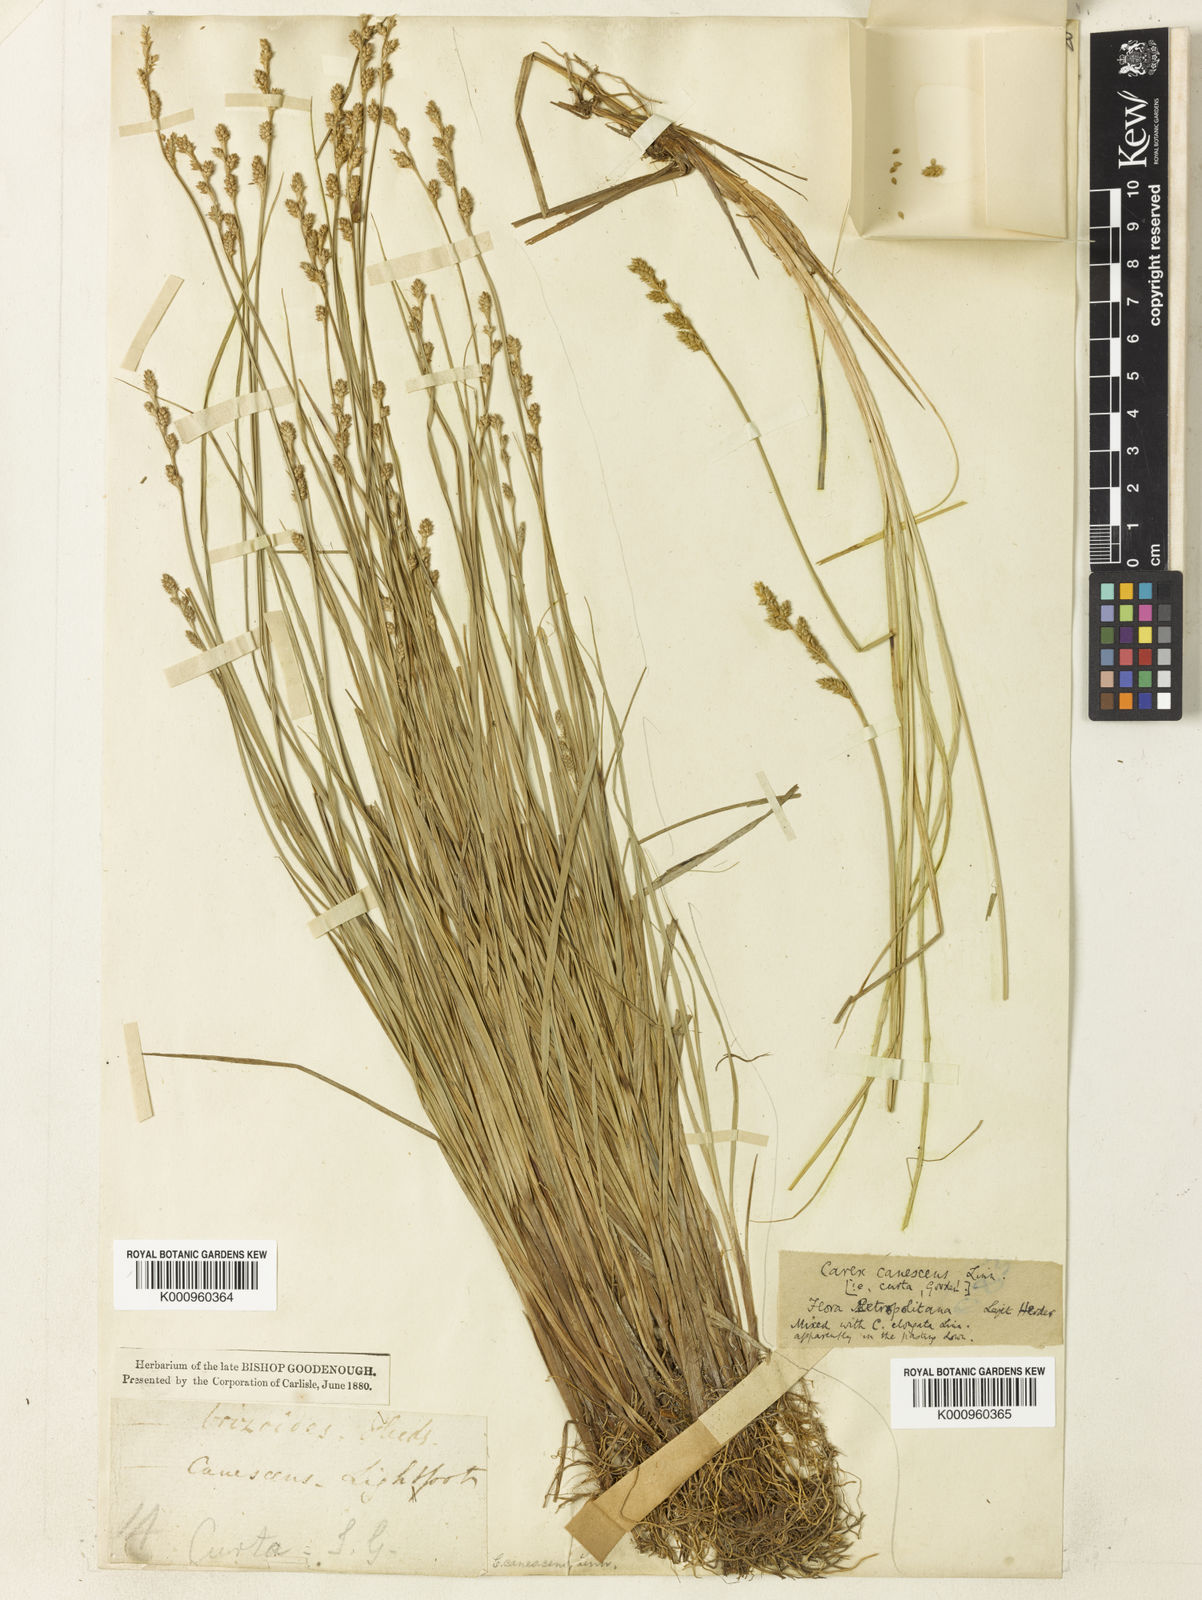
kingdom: Plantae
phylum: Tracheophyta
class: Liliopsida
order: Poales
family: Cyperaceae
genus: Carex
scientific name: Carex curta
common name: White sedge
